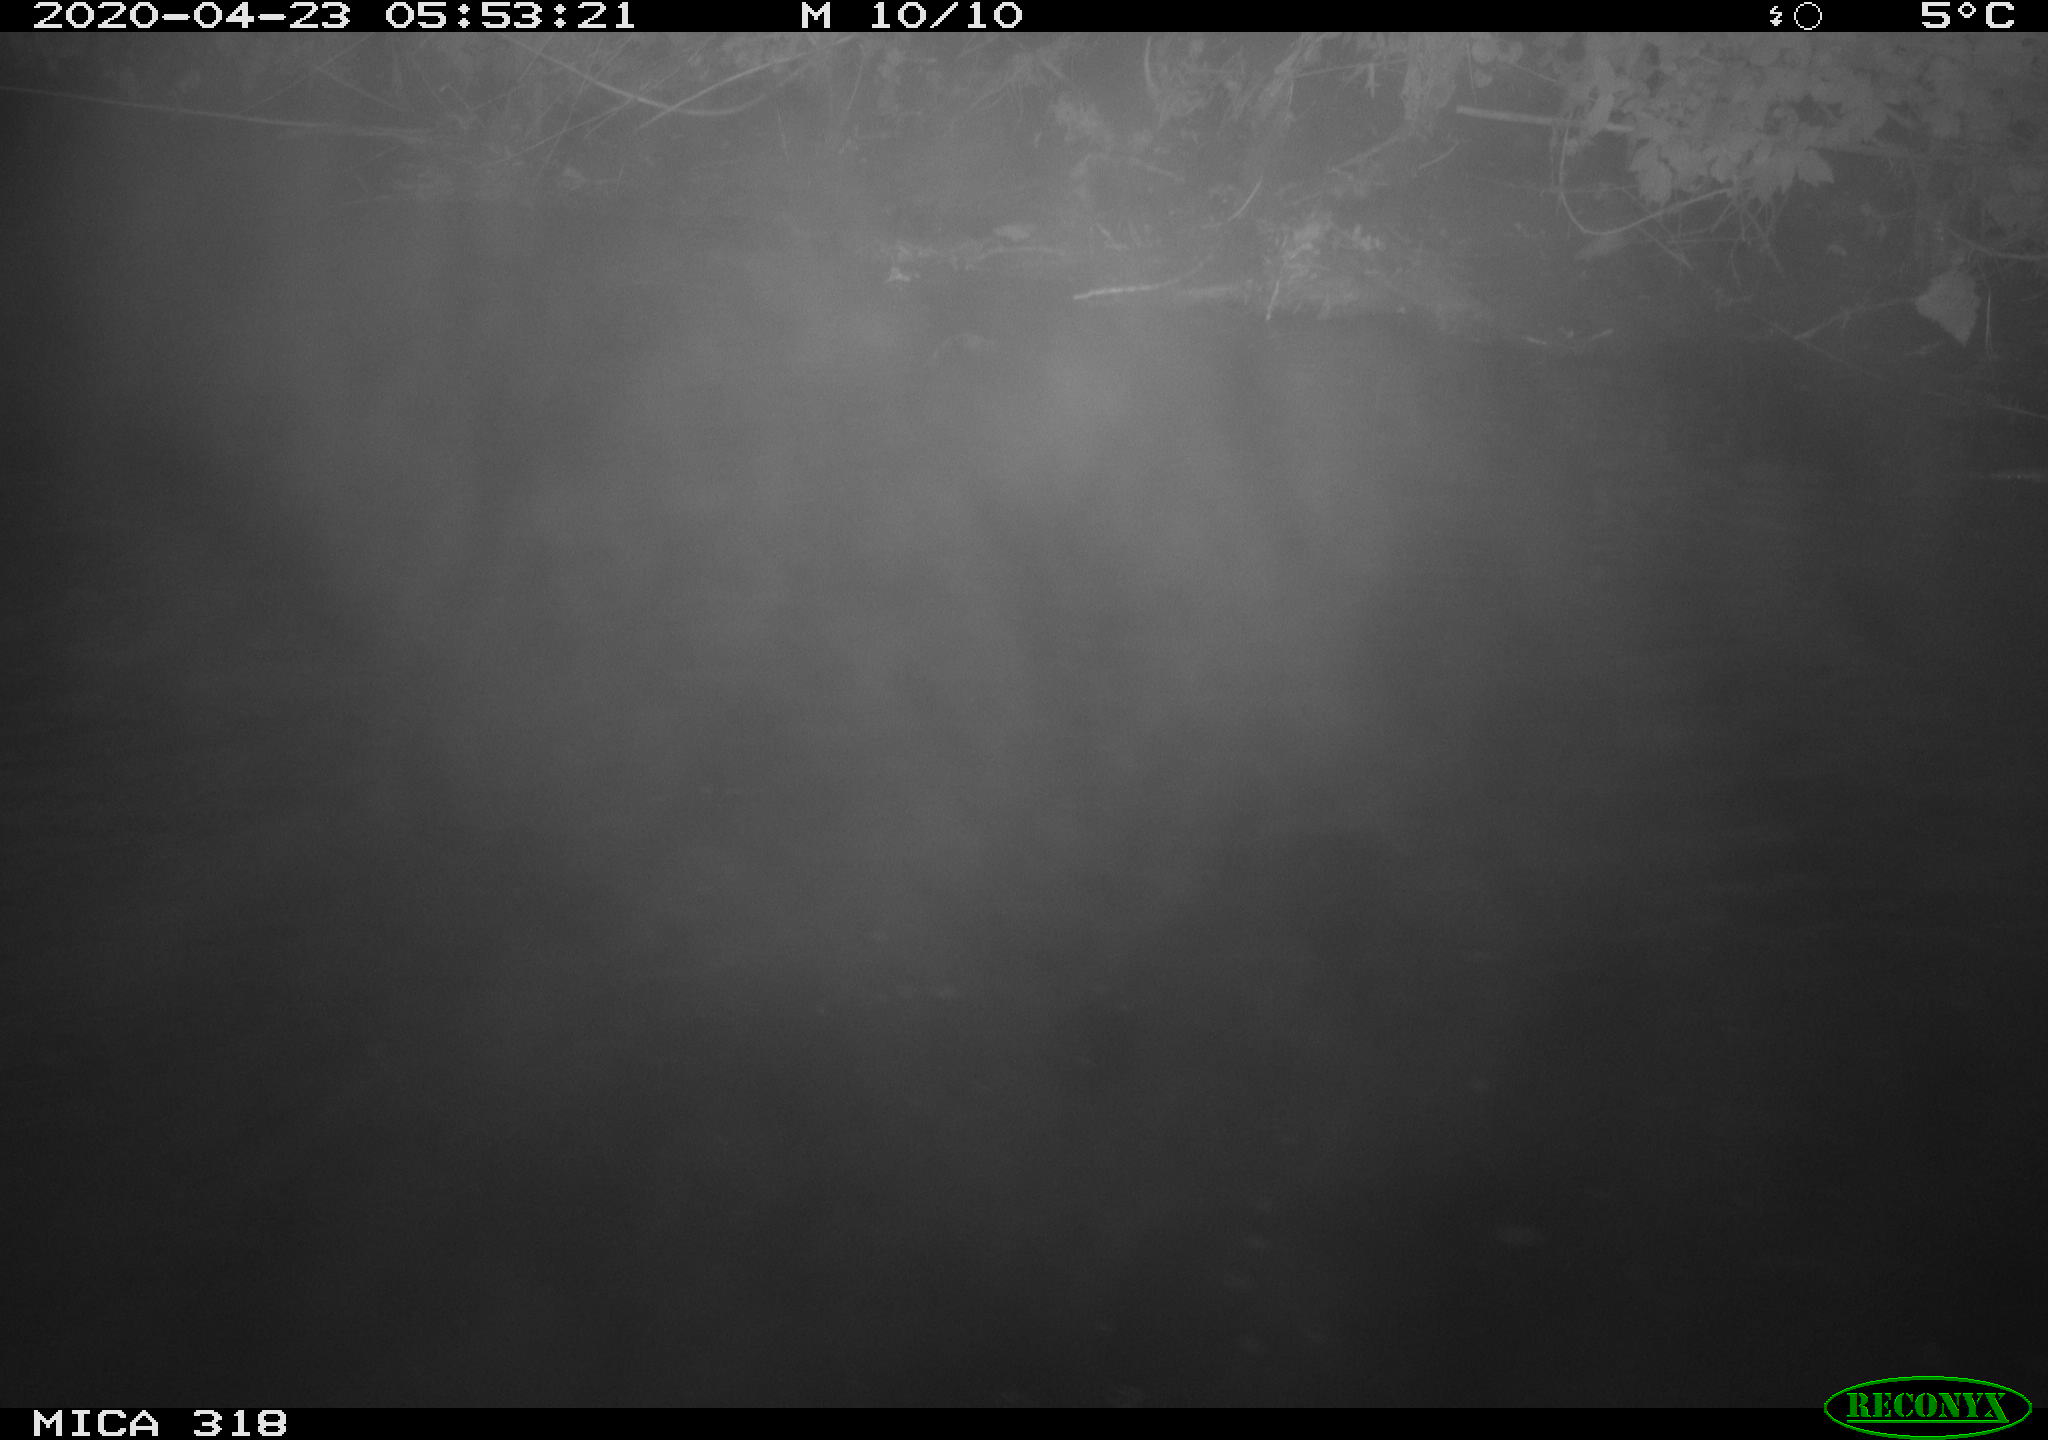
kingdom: Animalia
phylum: Chordata
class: Aves
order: Gruiformes
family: Rallidae
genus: Gallinula
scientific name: Gallinula chloropus
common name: Common moorhen
